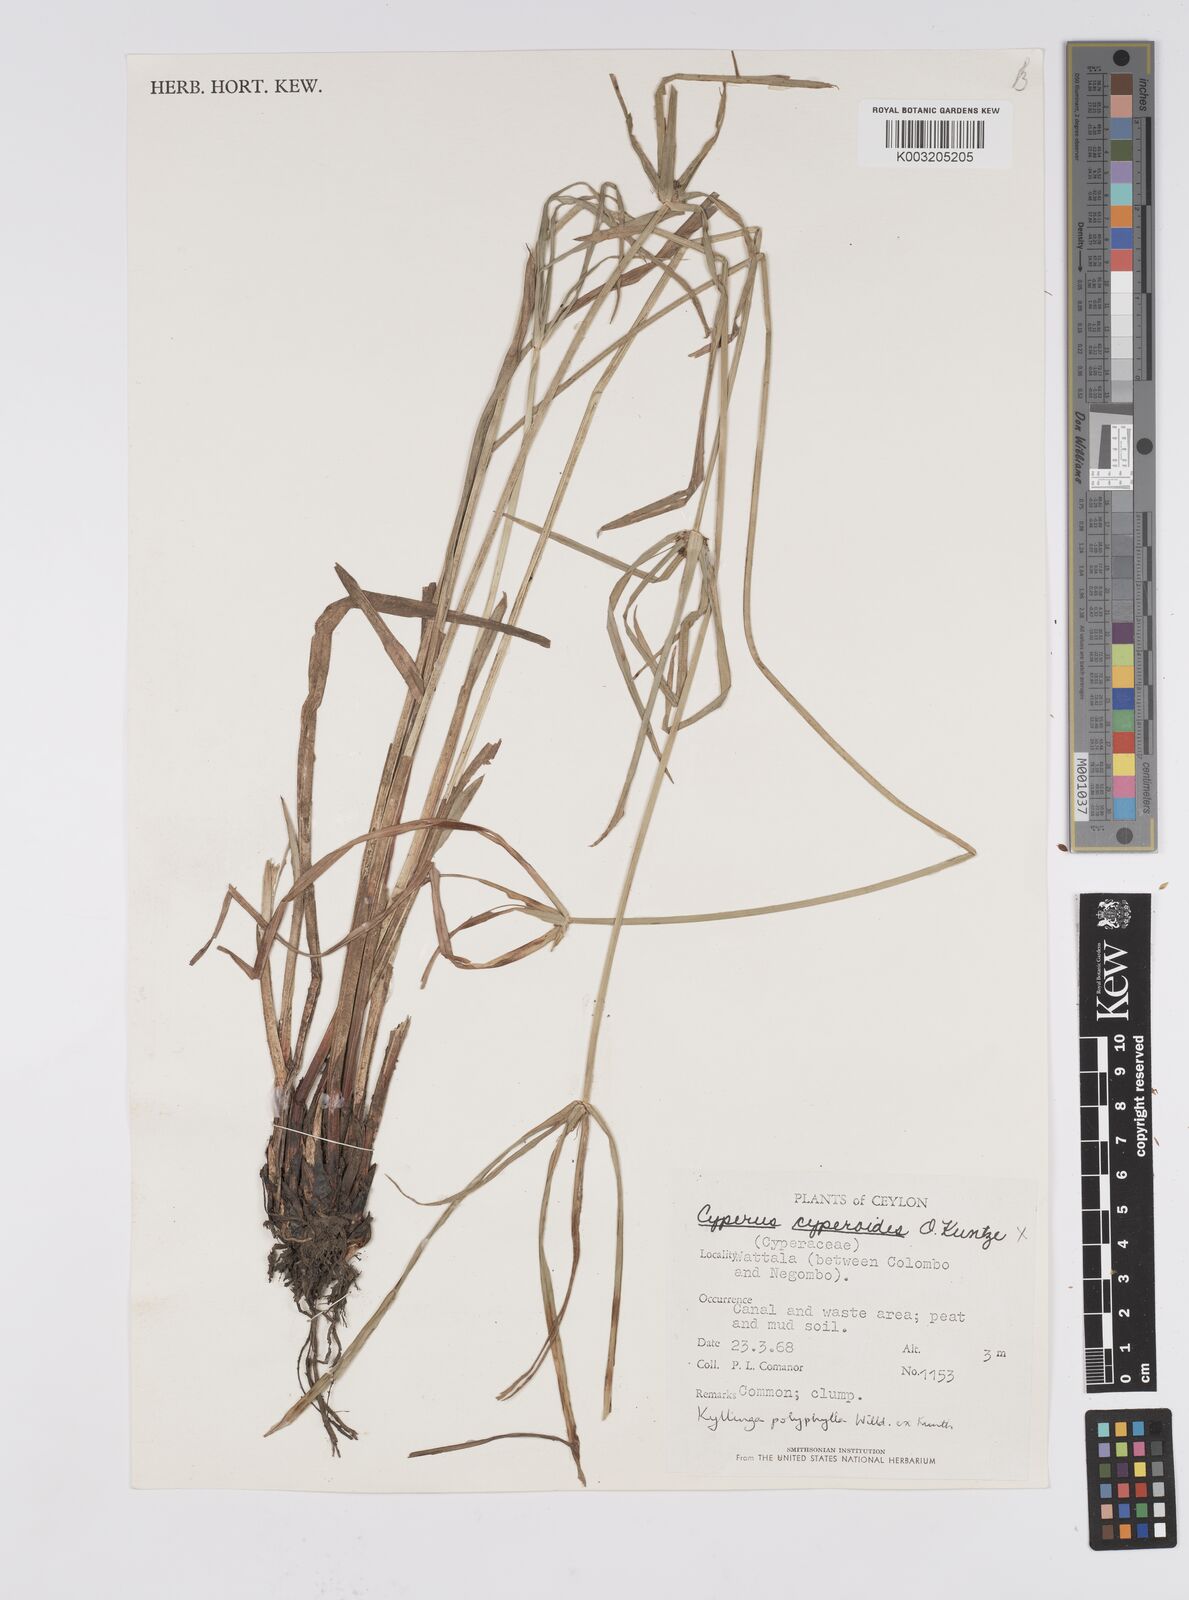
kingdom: Plantae
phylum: Tracheophyta
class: Liliopsida
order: Poales
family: Cyperaceae
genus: Cyperus
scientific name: Cyperus
